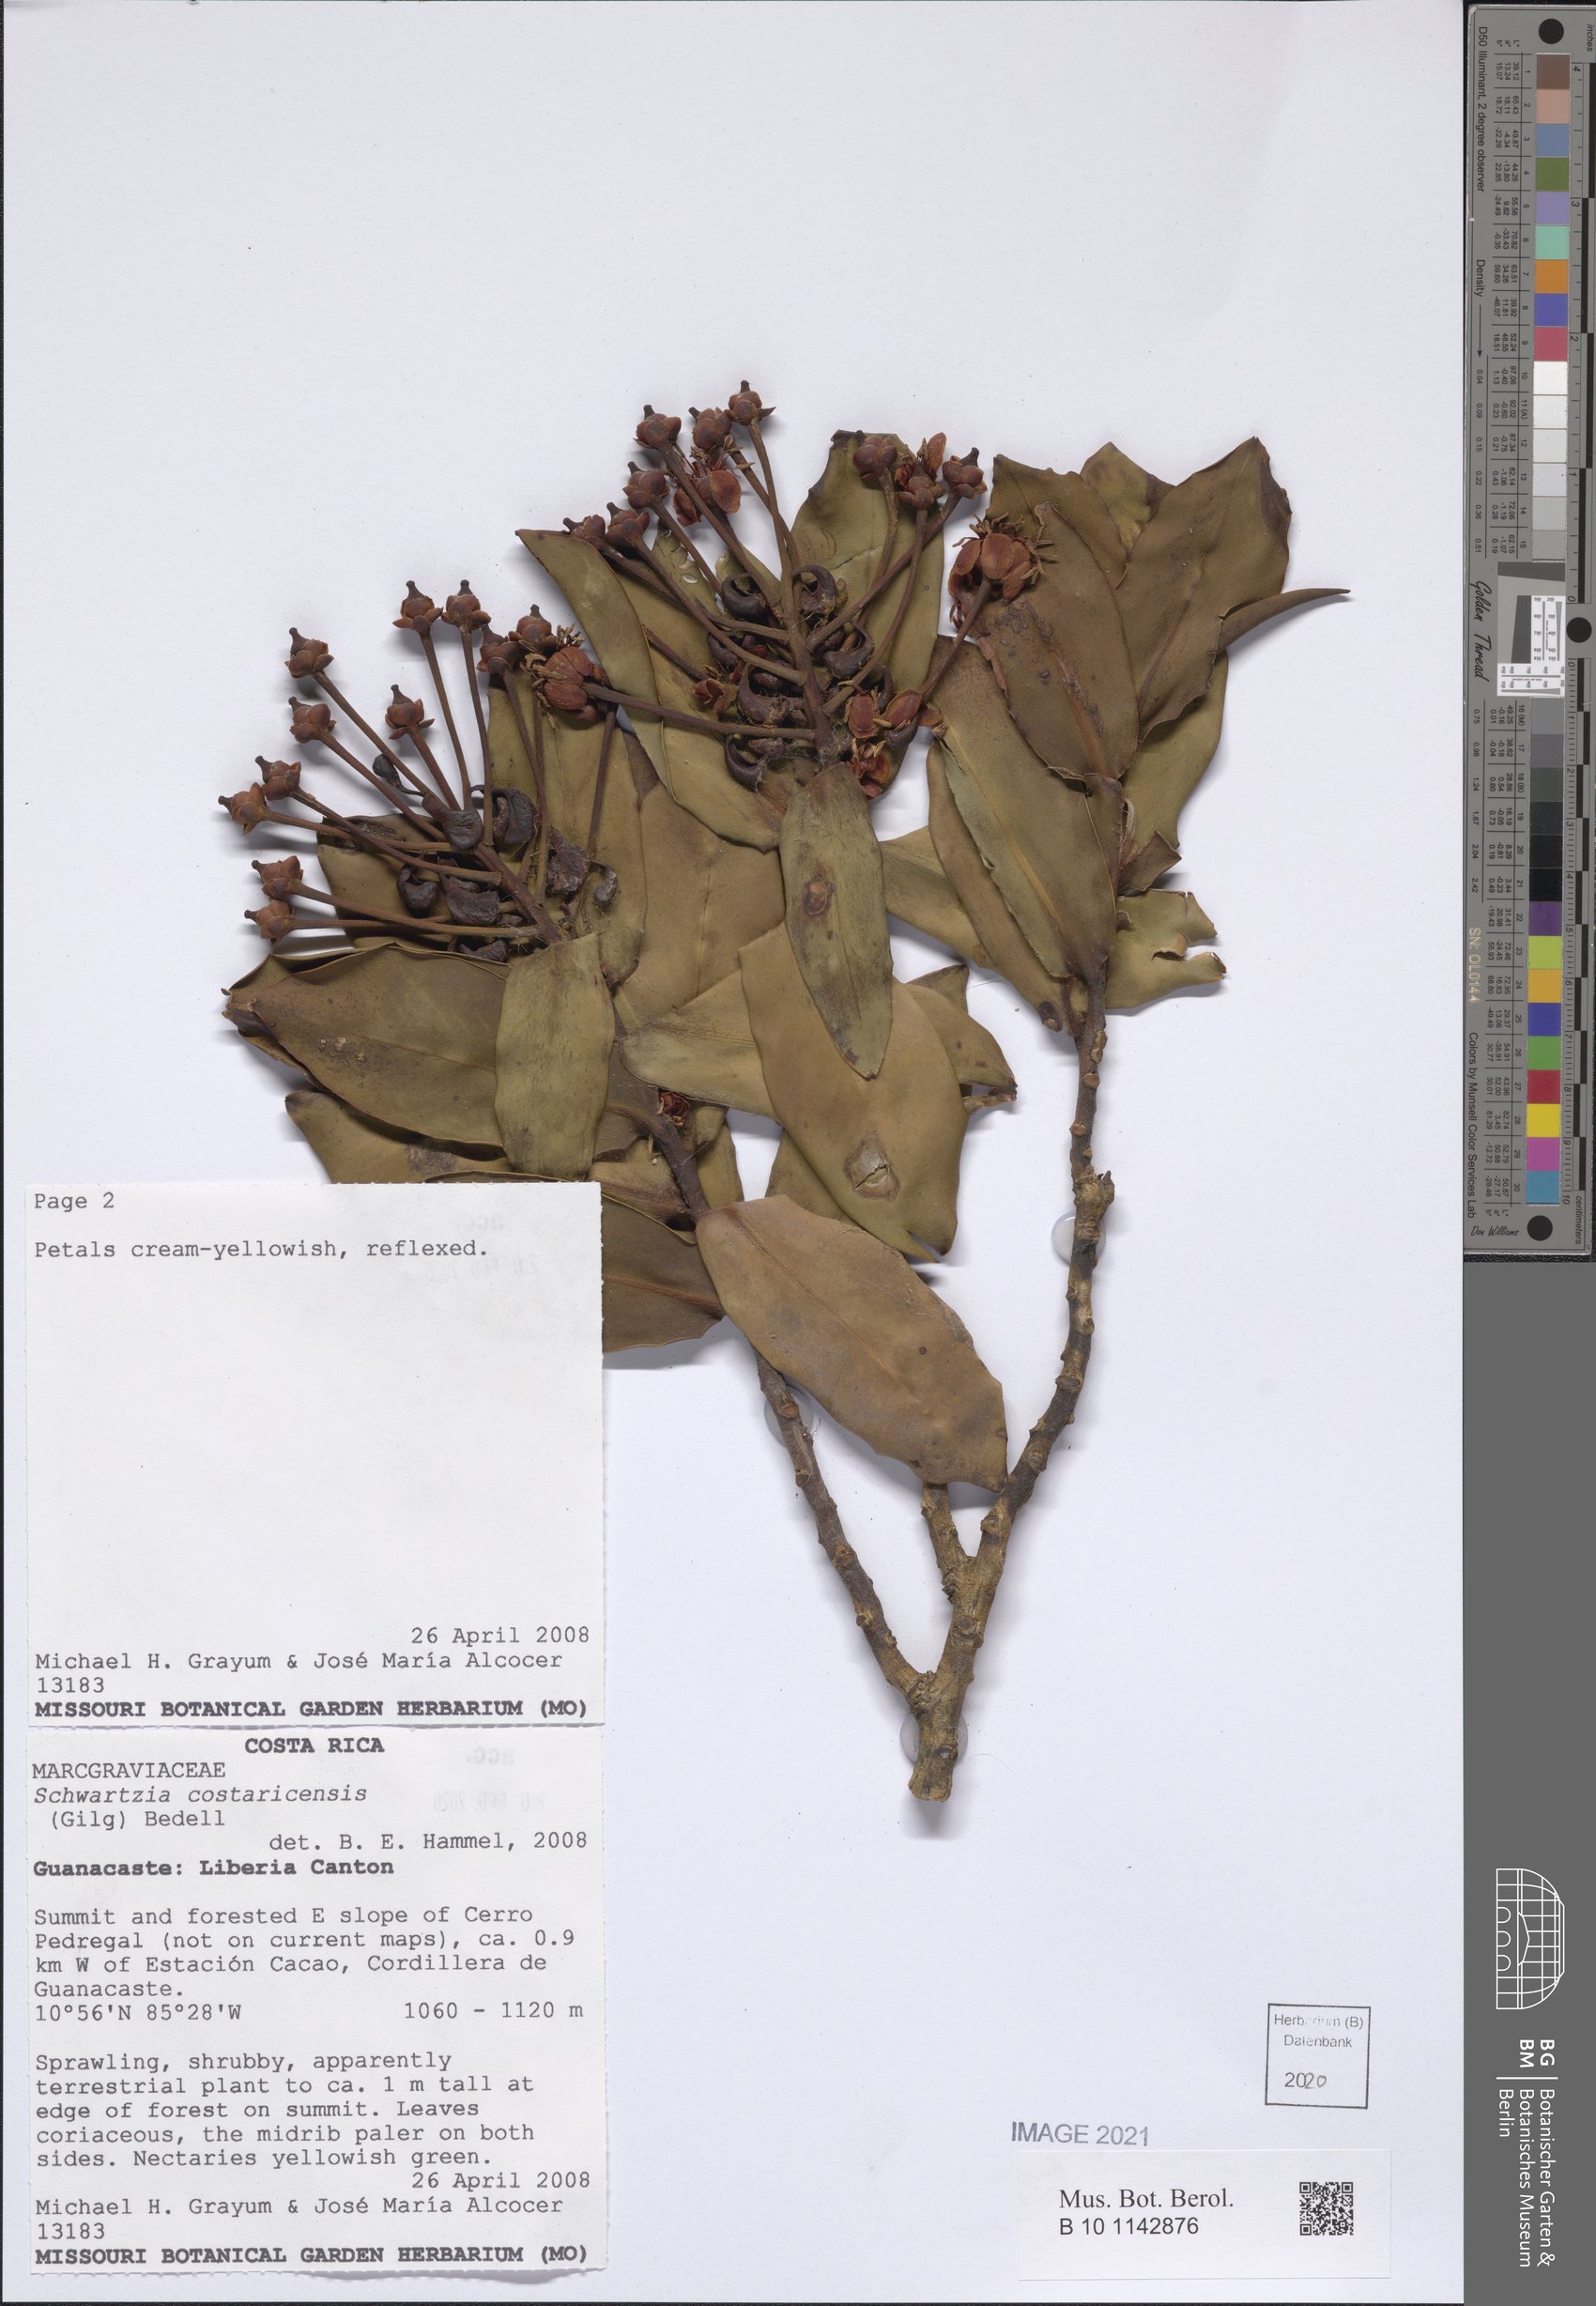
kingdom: Plantae
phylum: Tracheophyta
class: Magnoliopsida
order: Ericales
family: Marcgraviaceae
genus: Schwartzia
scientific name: Schwartzia costaricensis
